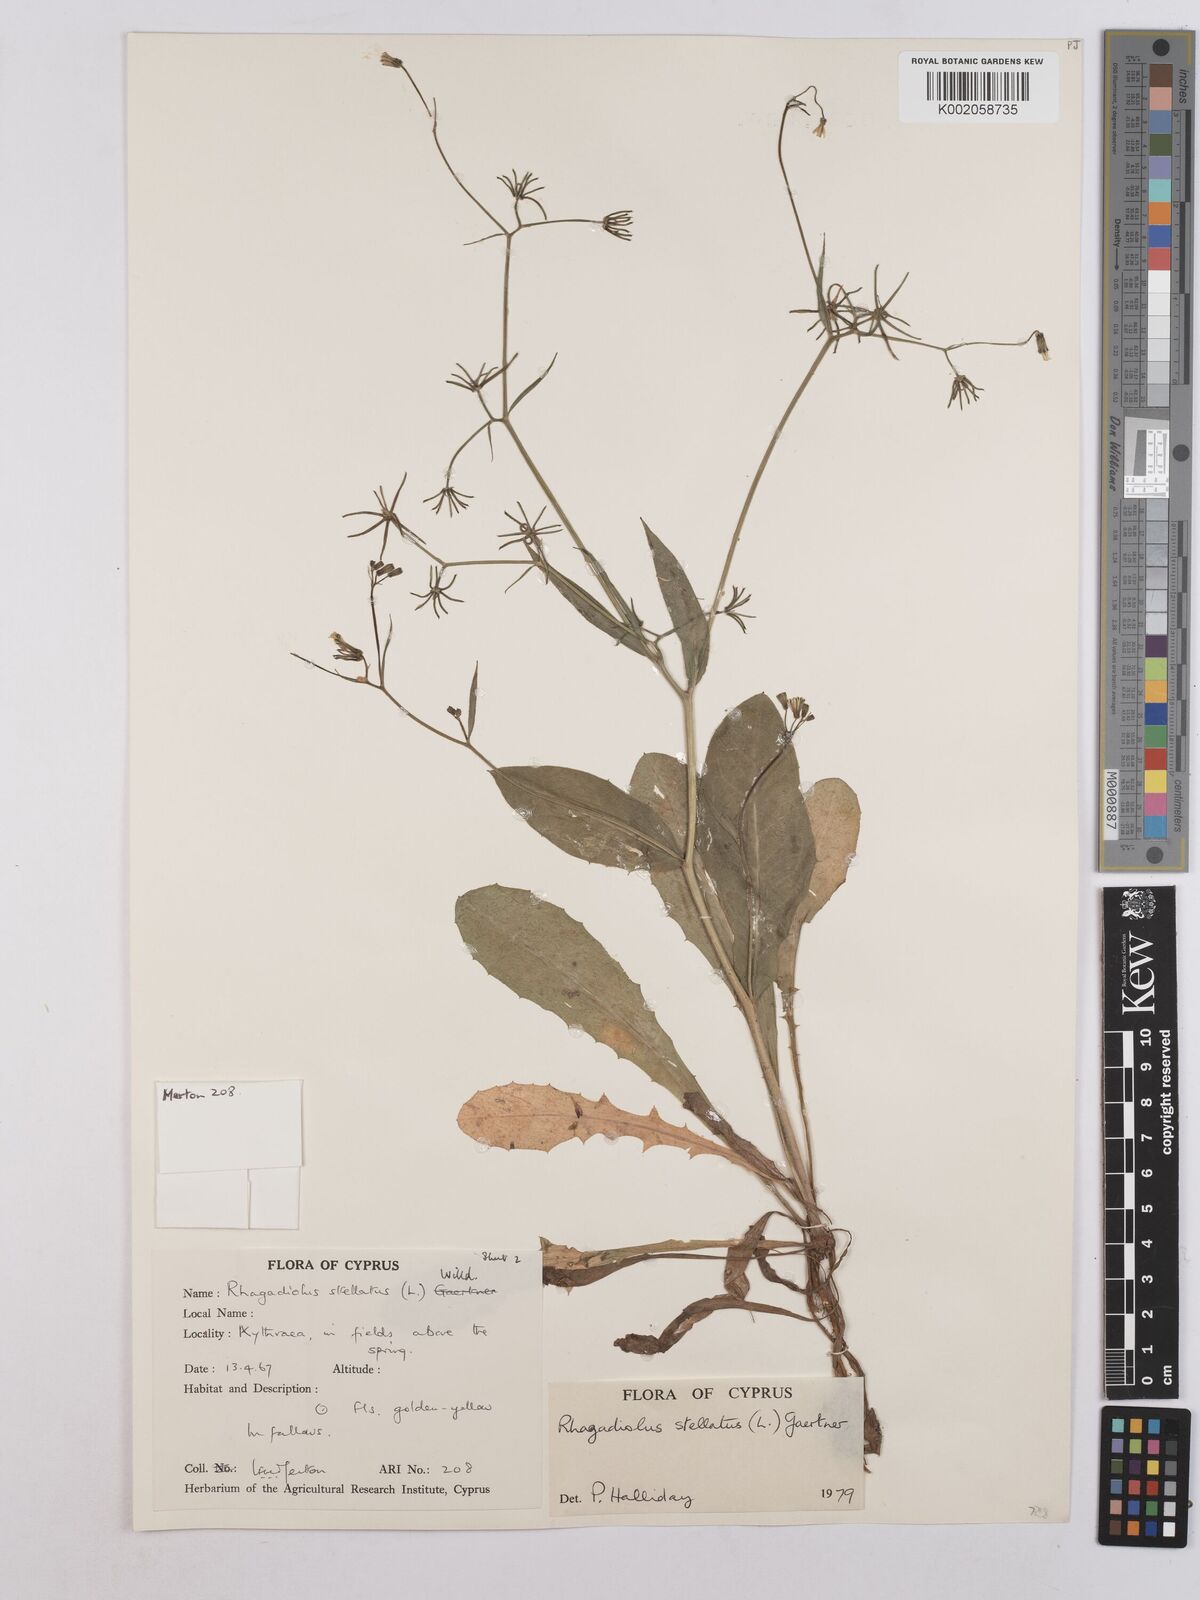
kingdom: Plantae
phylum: Tracheophyta
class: Magnoliopsida
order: Asterales
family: Asteraceae
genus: Rhagadiolus
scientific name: Rhagadiolus stellatus
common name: Star hawkbit
